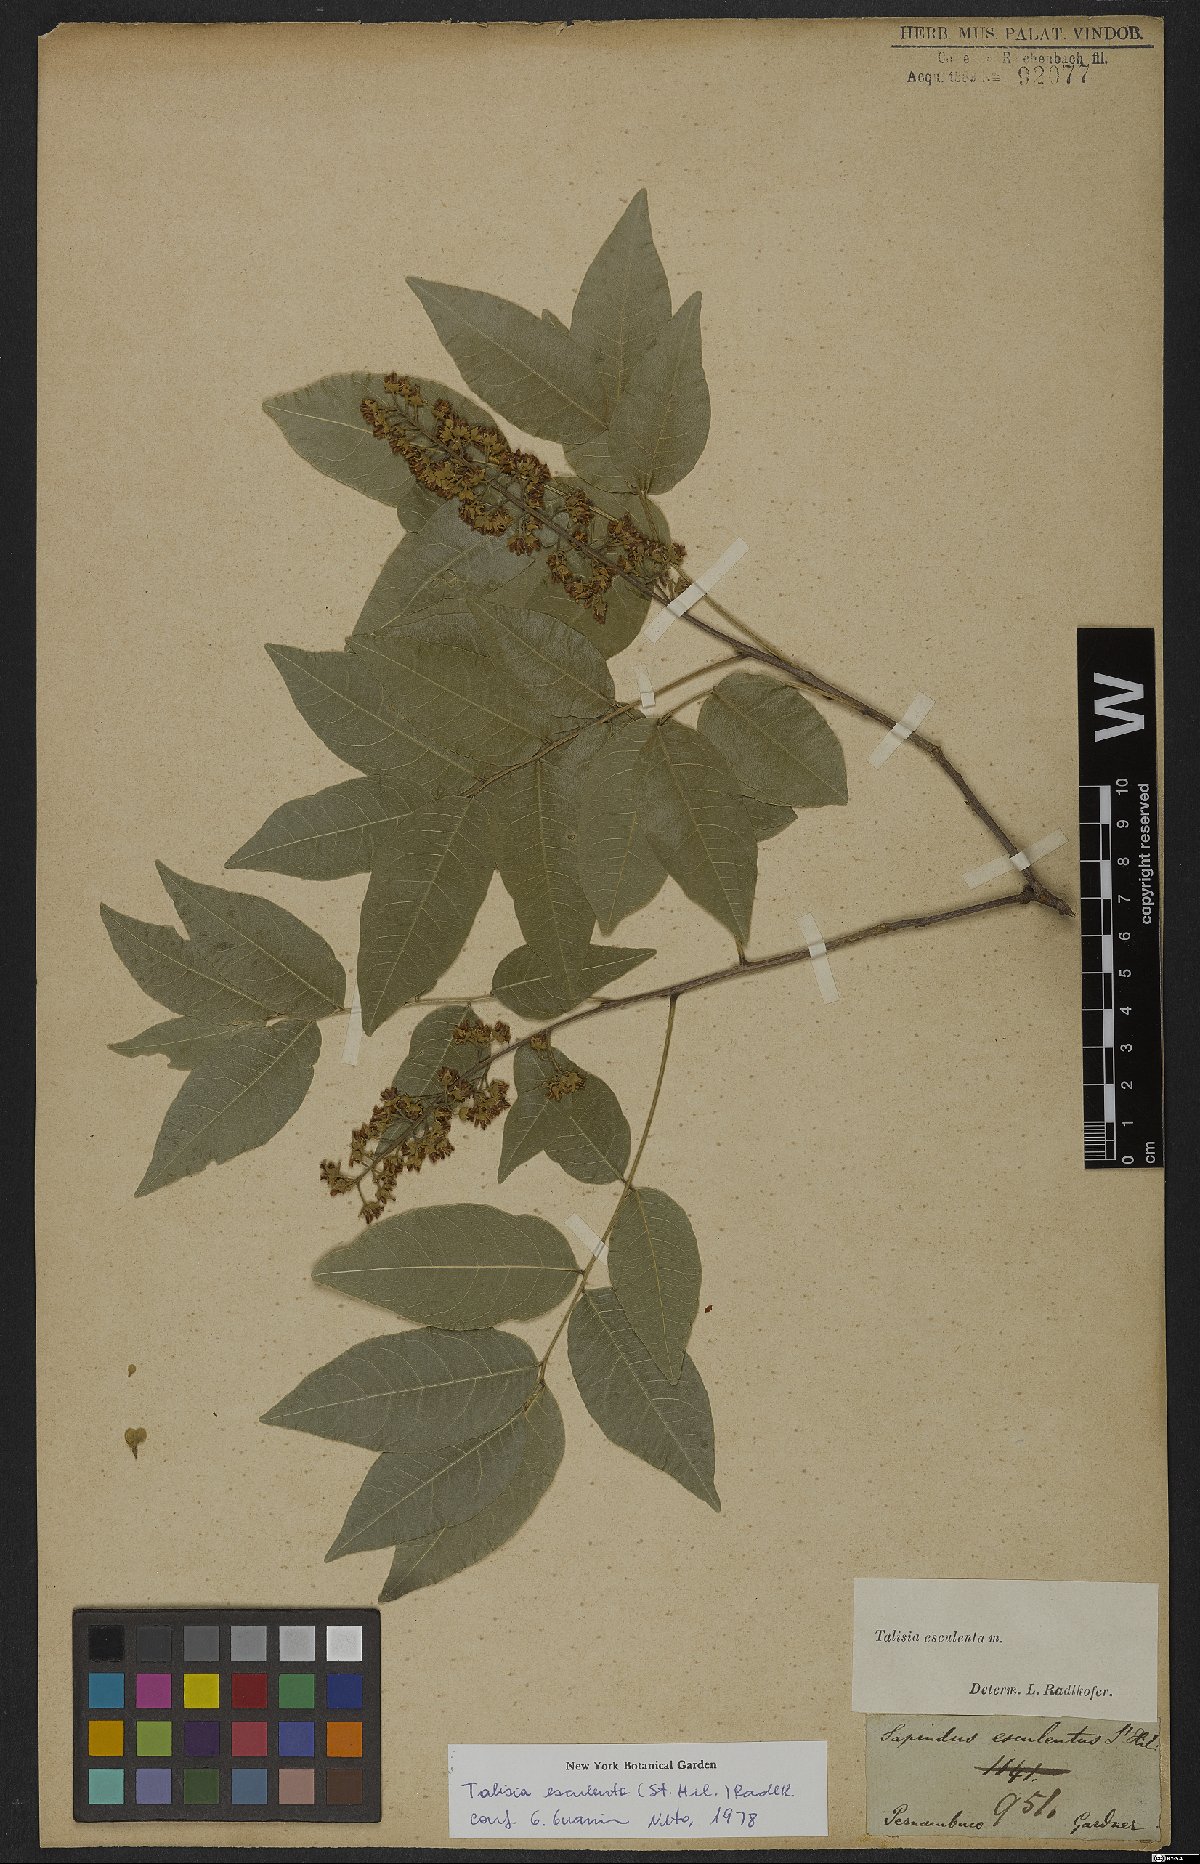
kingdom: Plantae
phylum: Tracheophyta
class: Magnoliopsida
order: Sapindales
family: Sapindaceae
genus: Talisia
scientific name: Talisia esculenta
